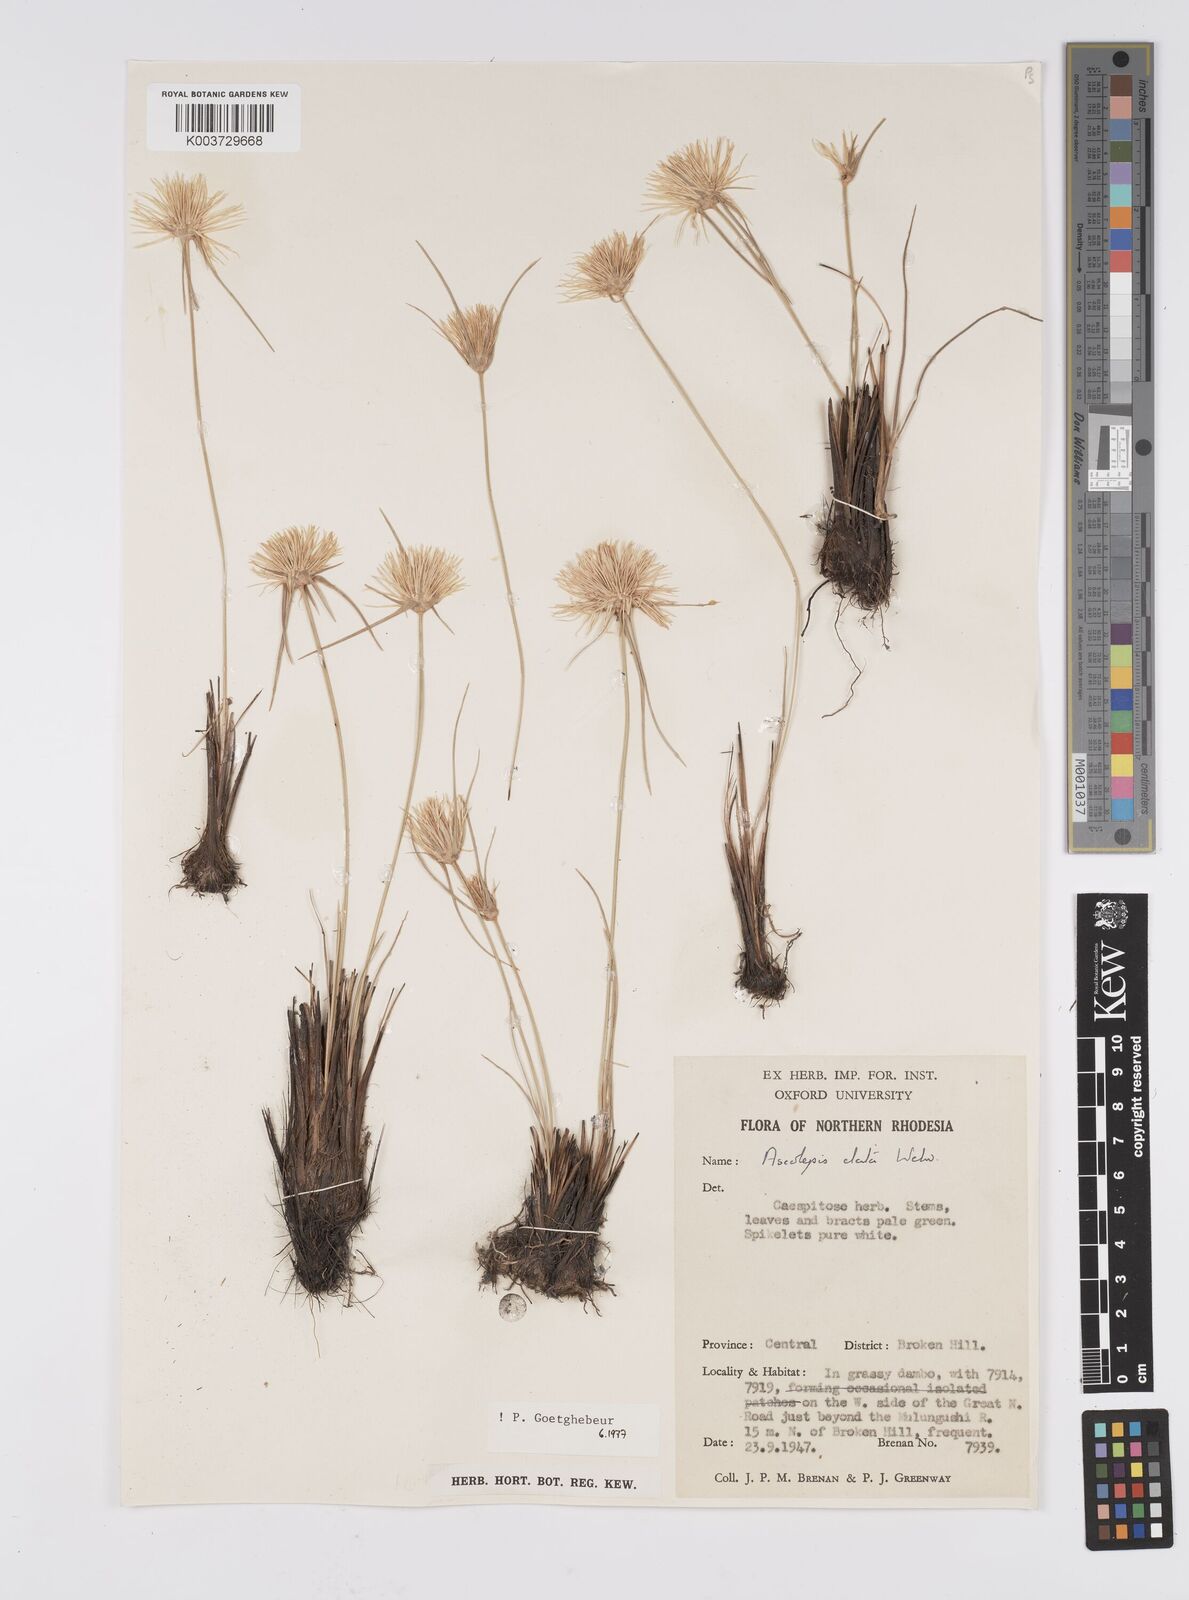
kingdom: Plantae
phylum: Tracheophyta
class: Liliopsida
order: Poales
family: Cyperaceae
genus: Cyperus
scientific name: Cyperus
